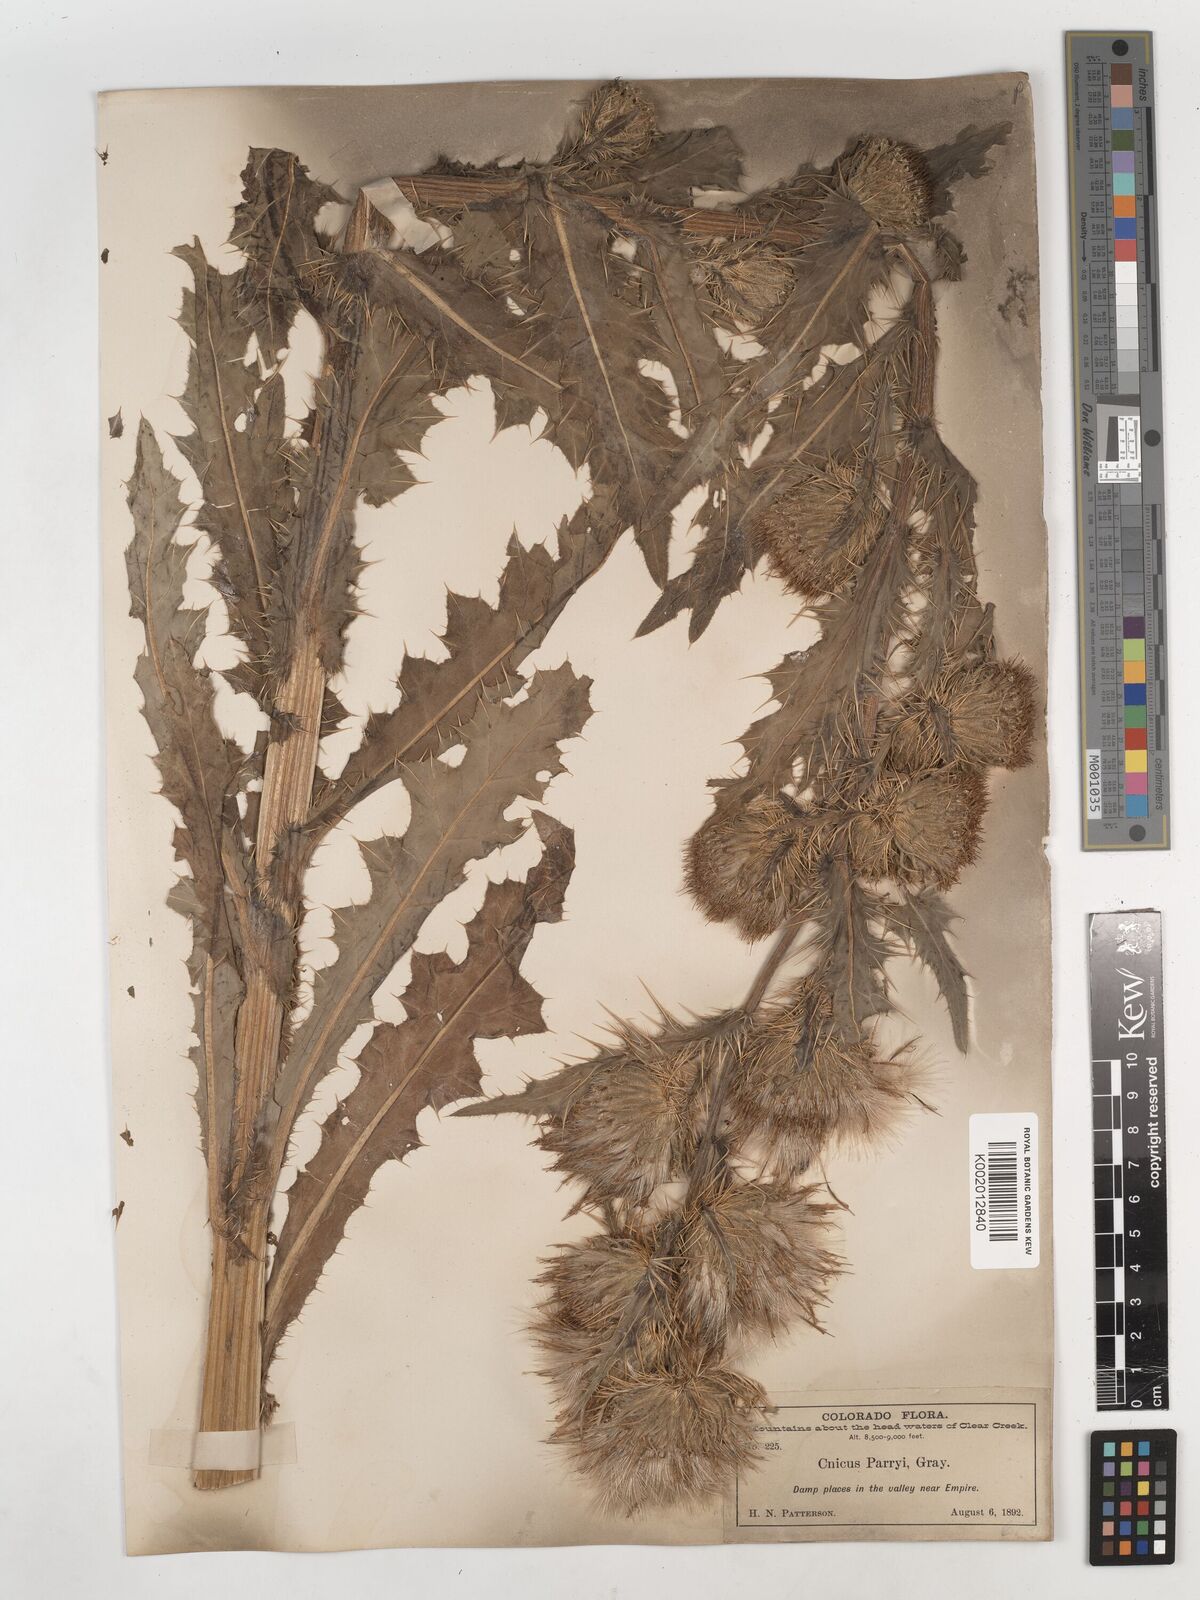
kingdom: Plantae
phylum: Tracheophyta
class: Magnoliopsida
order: Asterales
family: Asteraceae
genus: Cirsium
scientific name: Cirsium
